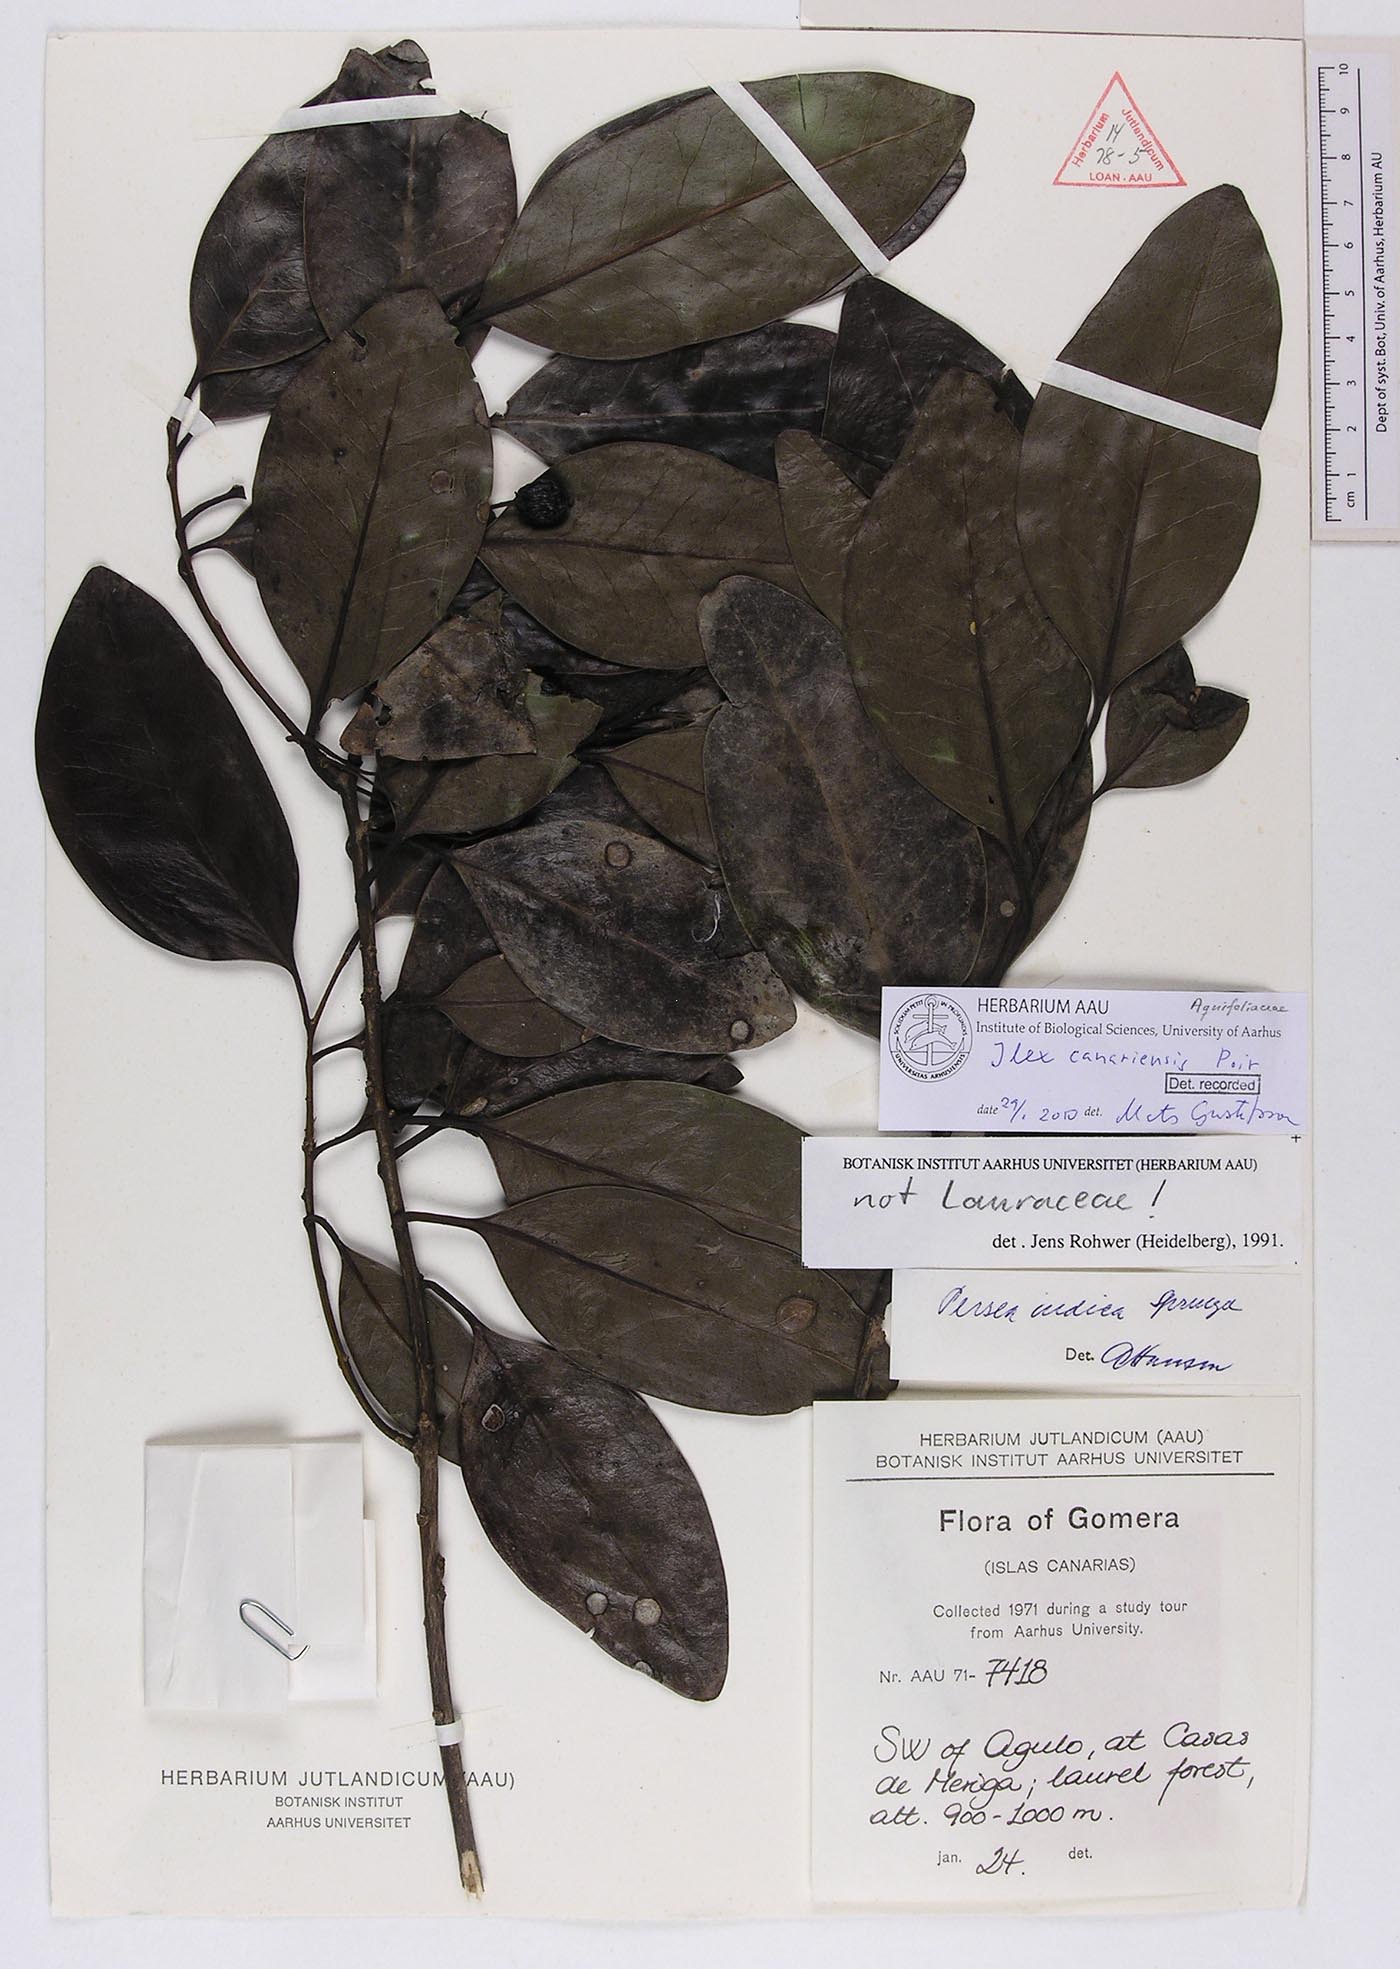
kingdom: Plantae
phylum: Tracheophyta
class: Magnoliopsida
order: Aquifoliales
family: Aquifoliaceae
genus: Ilex
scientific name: Ilex canariensis
